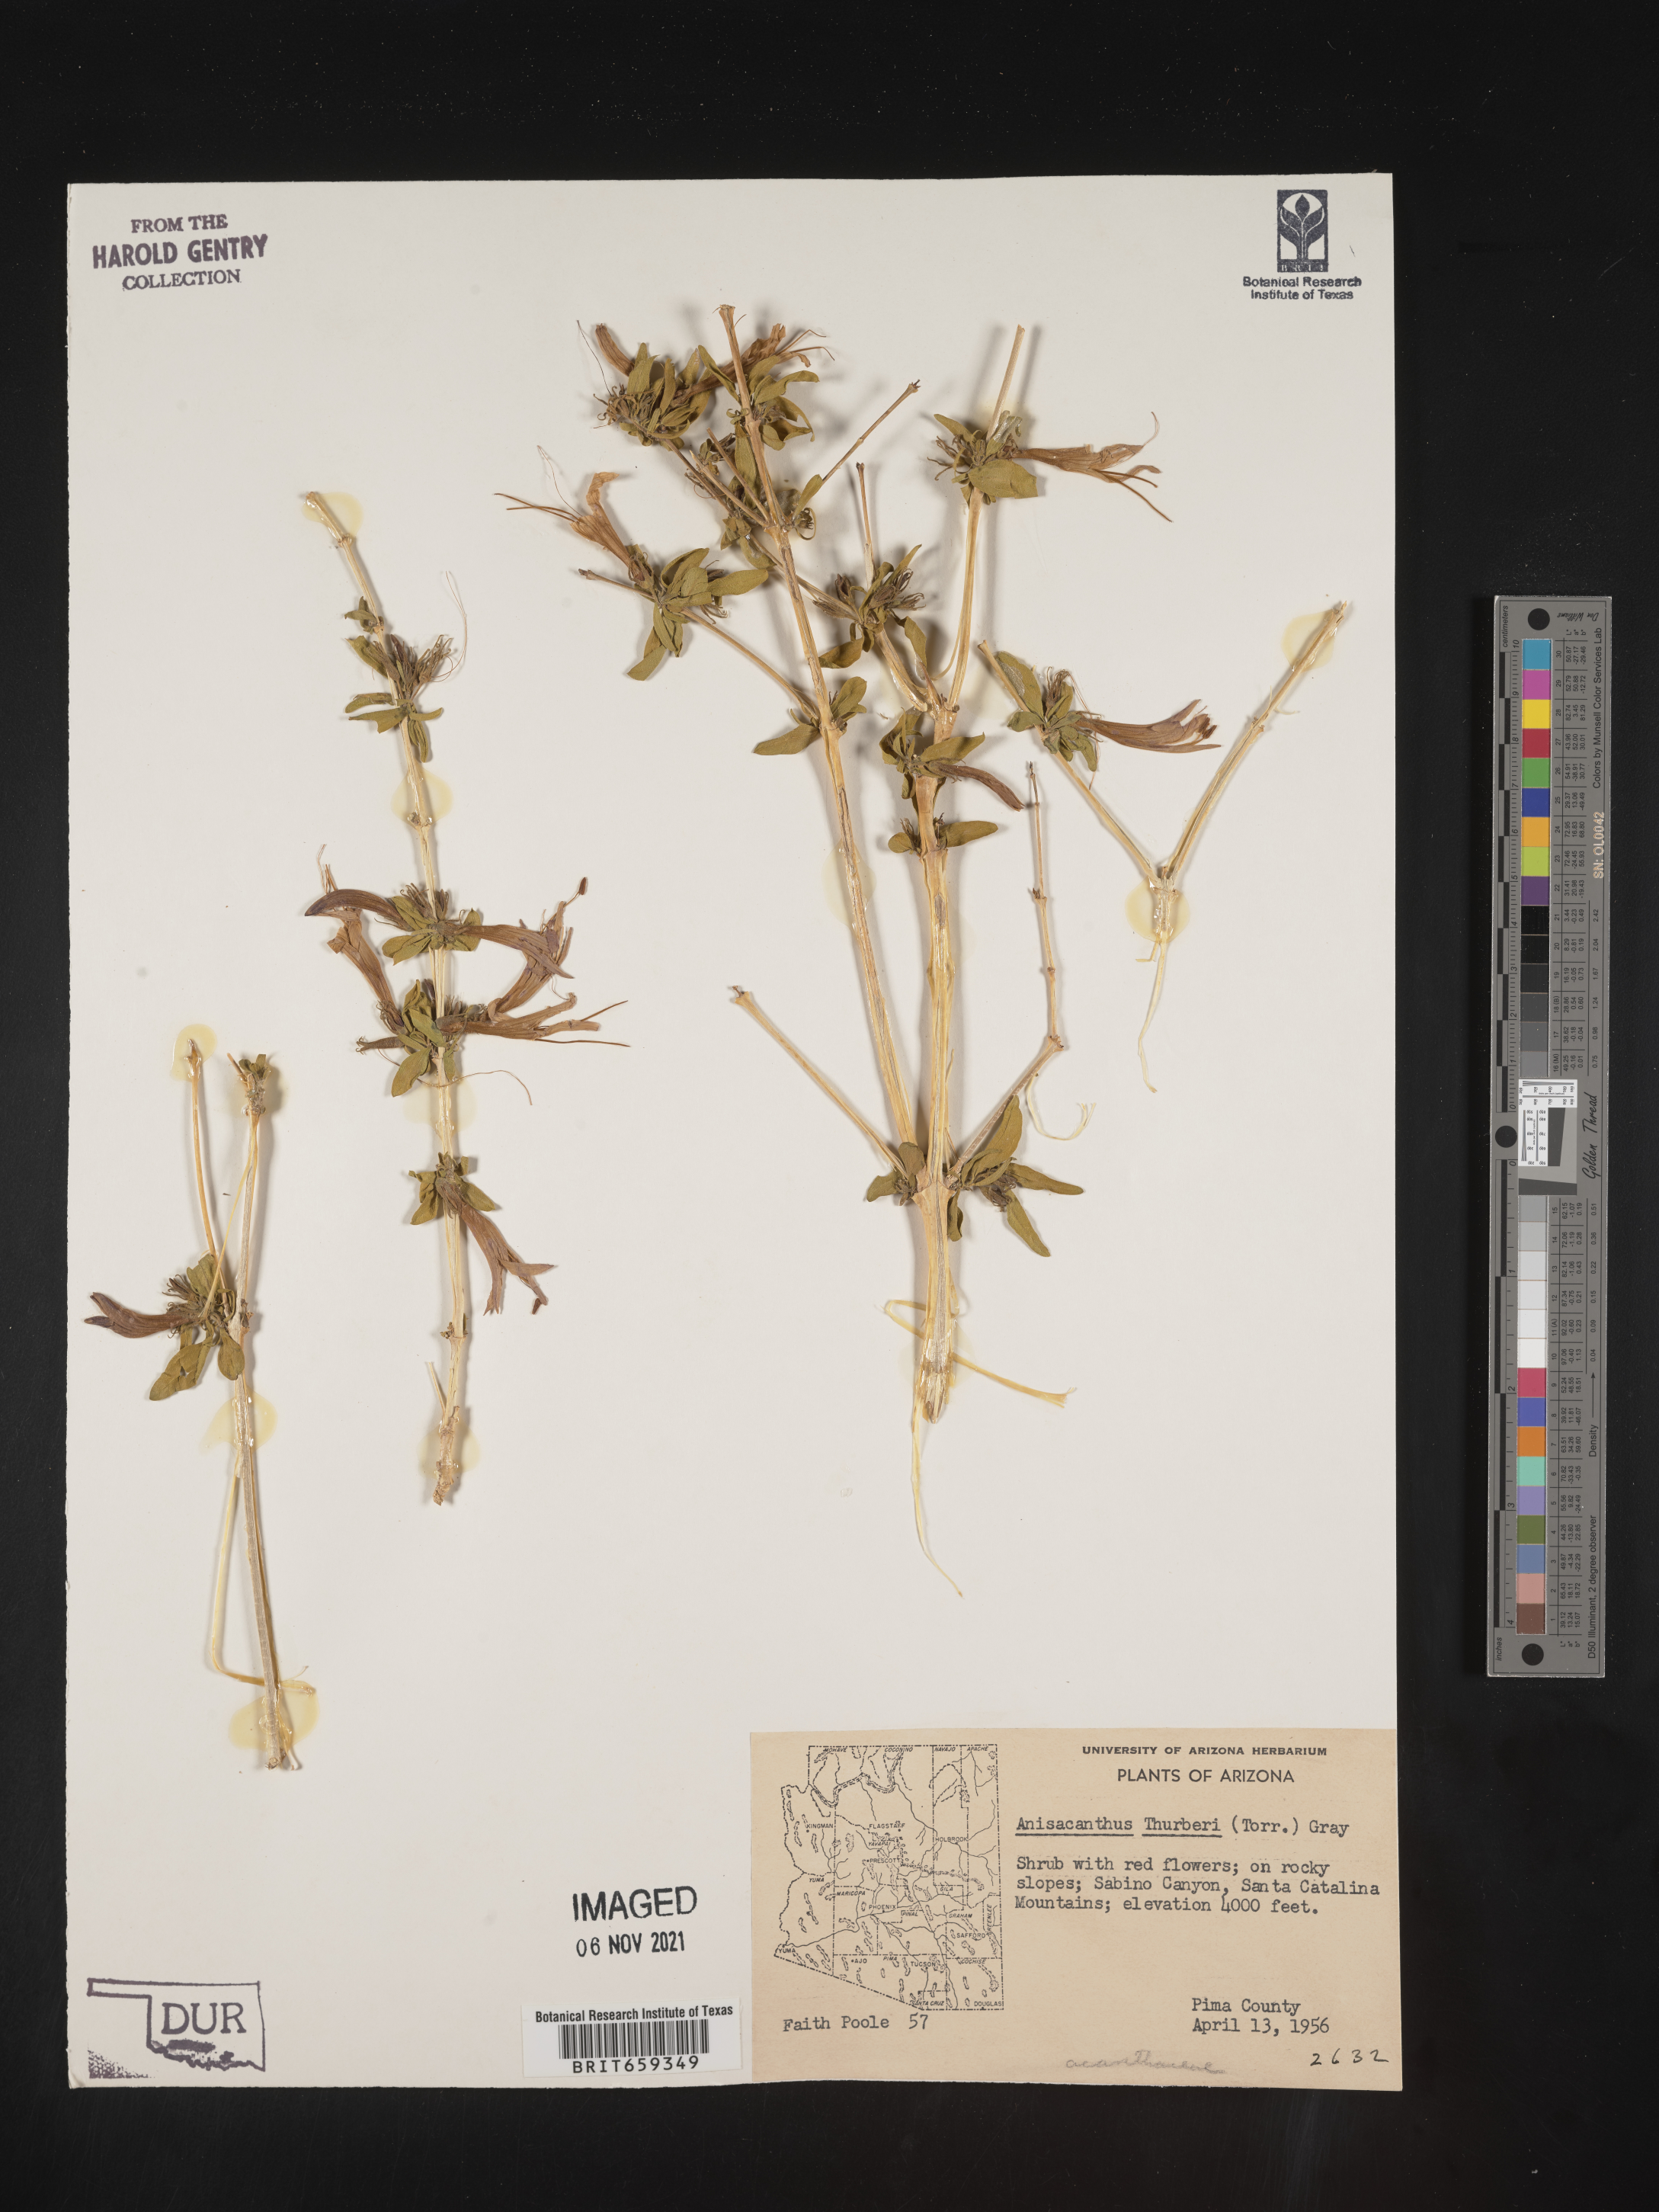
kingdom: Plantae
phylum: Tracheophyta
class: Magnoliopsida
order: Lamiales
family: Acanthaceae
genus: Anisacanthus
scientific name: Anisacanthus
